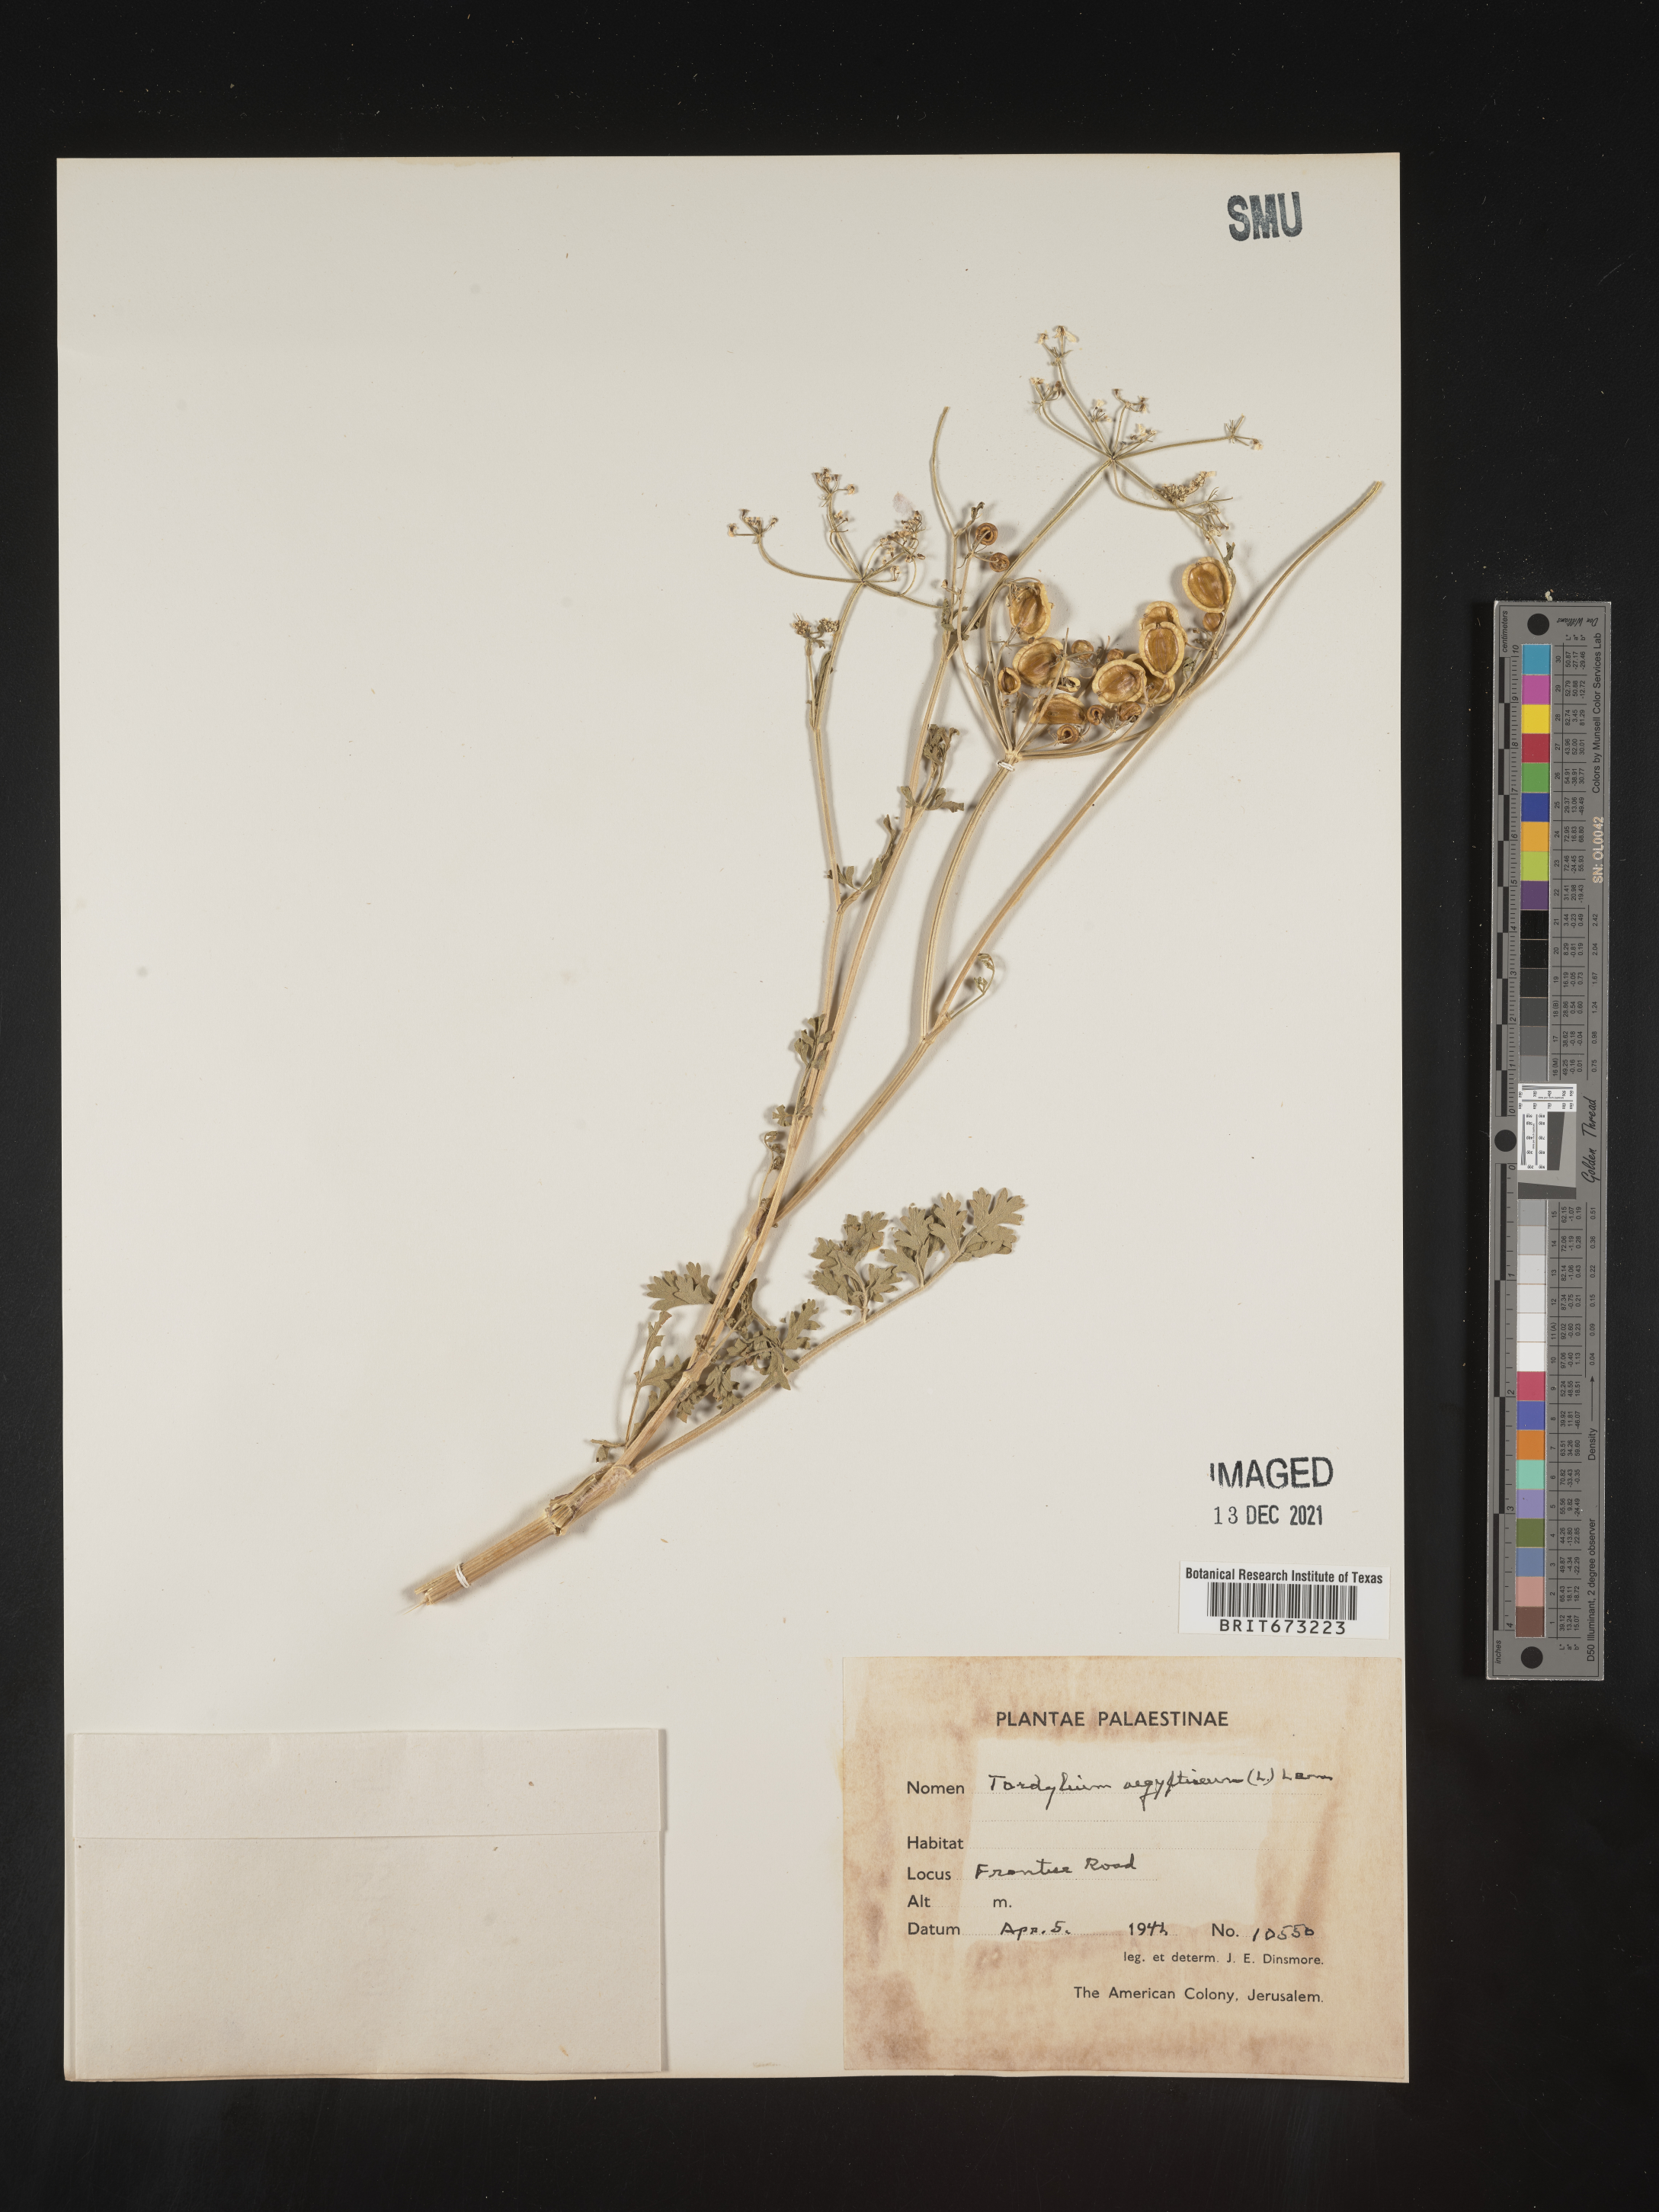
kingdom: Plantae
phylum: Tracheophyta
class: Magnoliopsida
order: Apiales
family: Apiaceae
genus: Tordylium
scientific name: Tordylium
